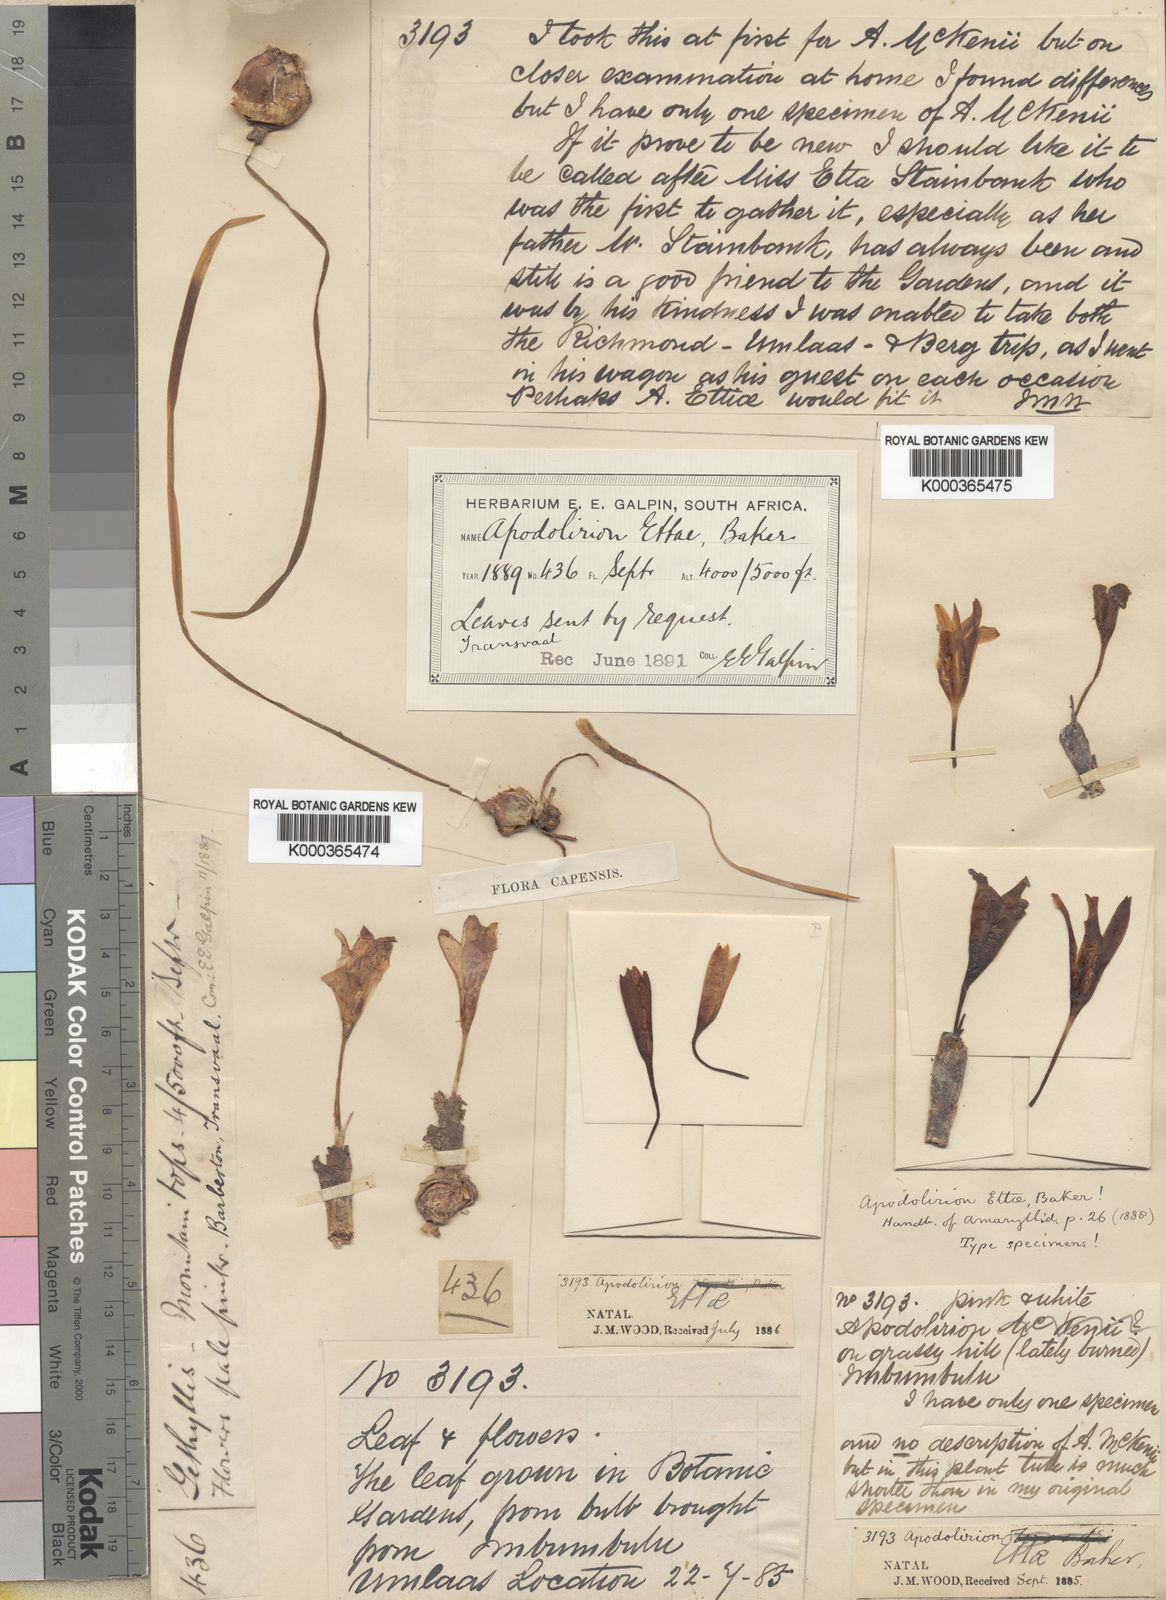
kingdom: Plantae
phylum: Tracheophyta
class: Liliopsida
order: Asparagales
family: Amaryllidaceae
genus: Apodolirion
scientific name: Apodolirion buchananii
